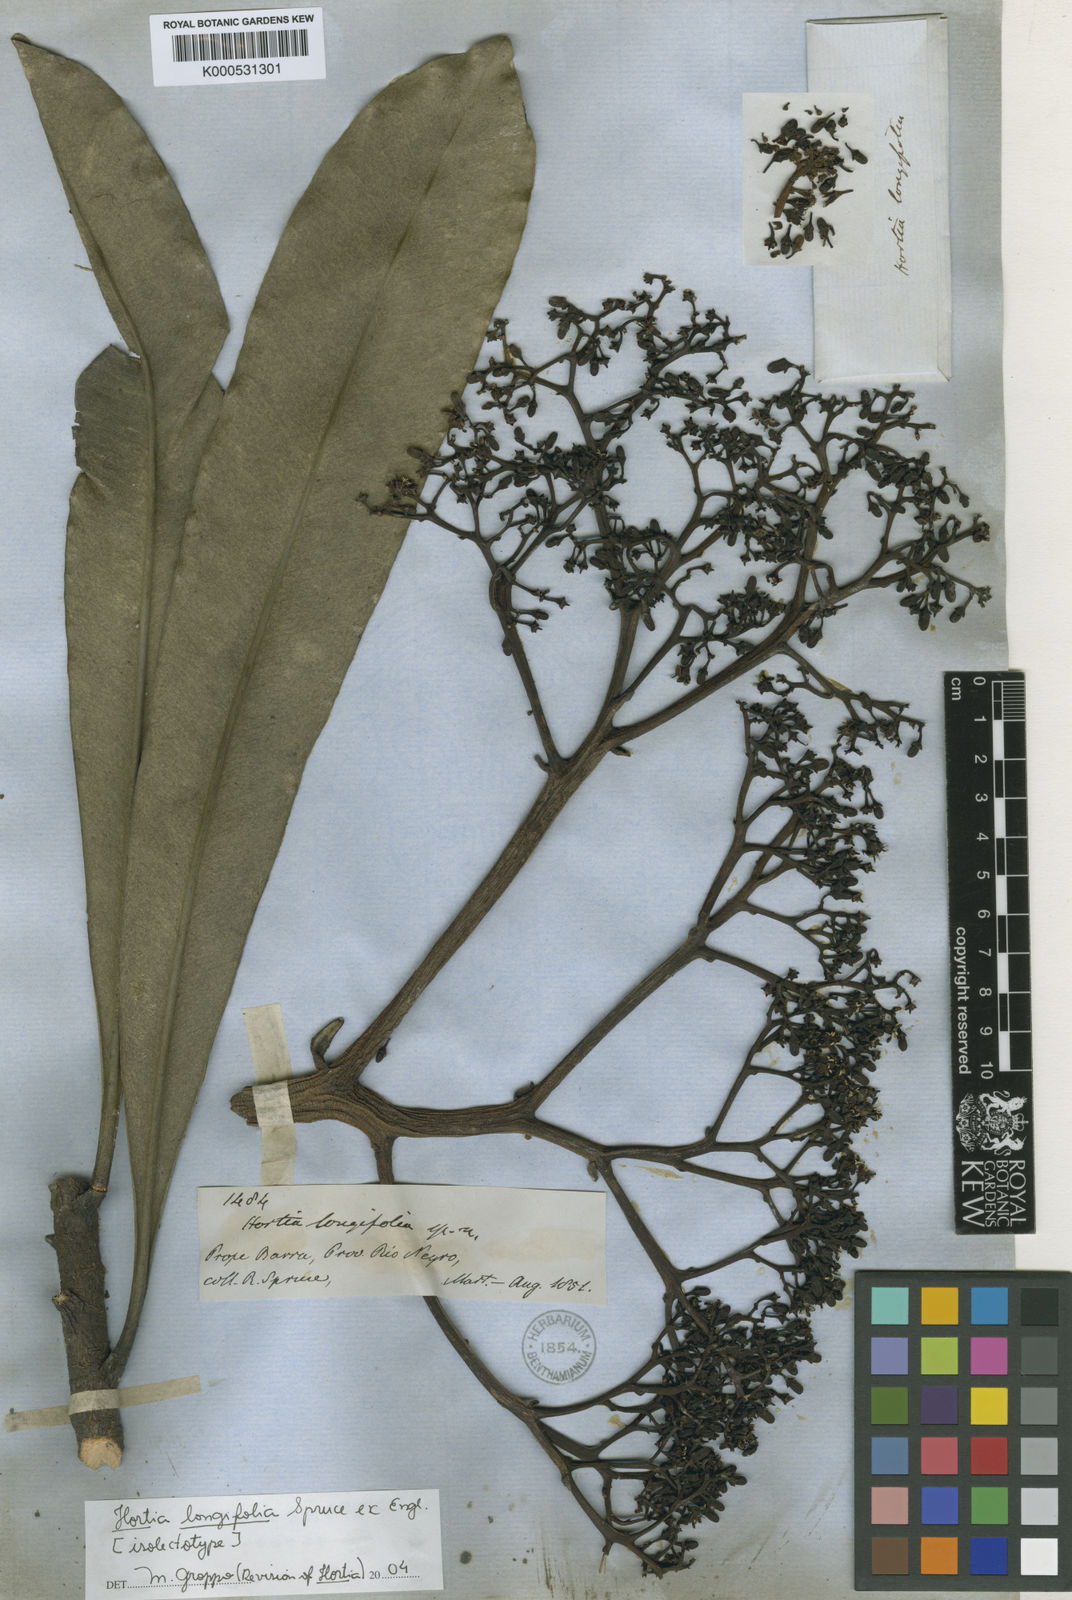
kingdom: Plantae
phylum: Tracheophyta
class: Magnoliopsida
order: Sapindales
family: Rutaceae
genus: Hortia
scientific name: Hortia longifolia
